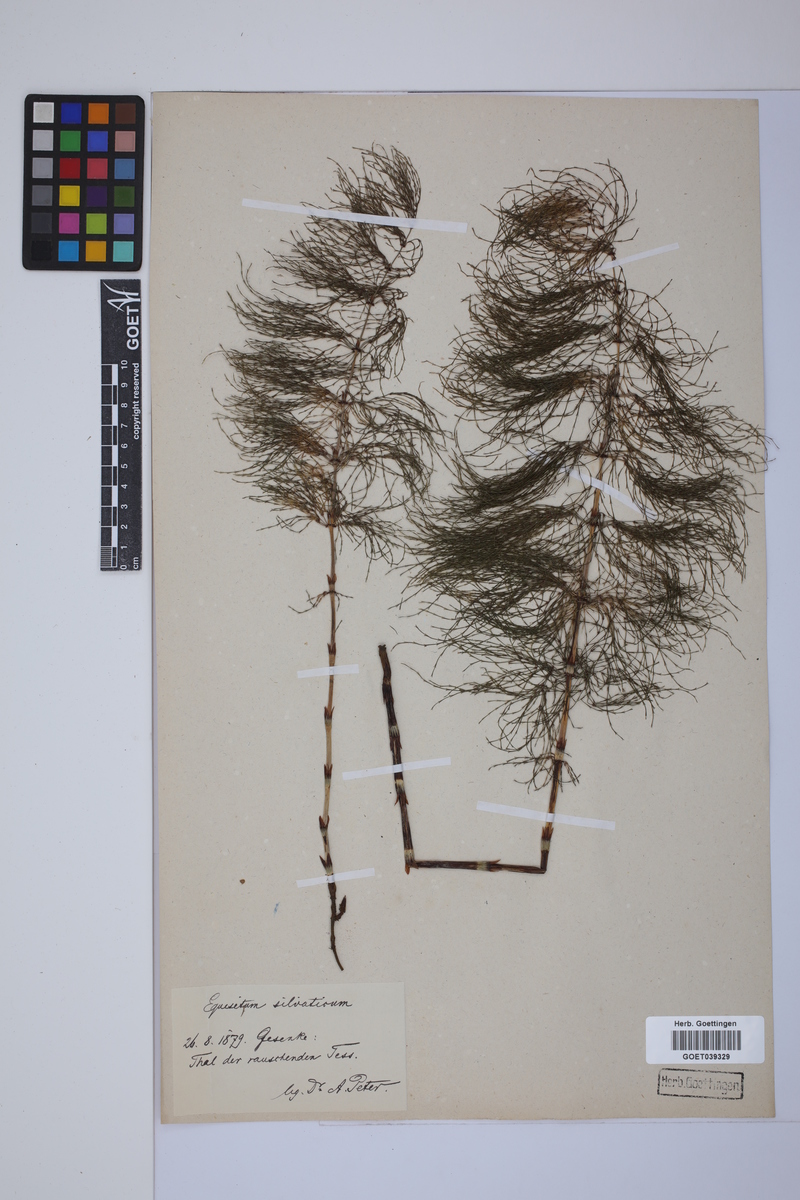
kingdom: Plantae
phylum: Tracheophyta
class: Polypodiopsida
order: Equisetales
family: Equisetaceae
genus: Equisetum
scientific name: Equisetum sylvaticum
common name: Wood horsetail
